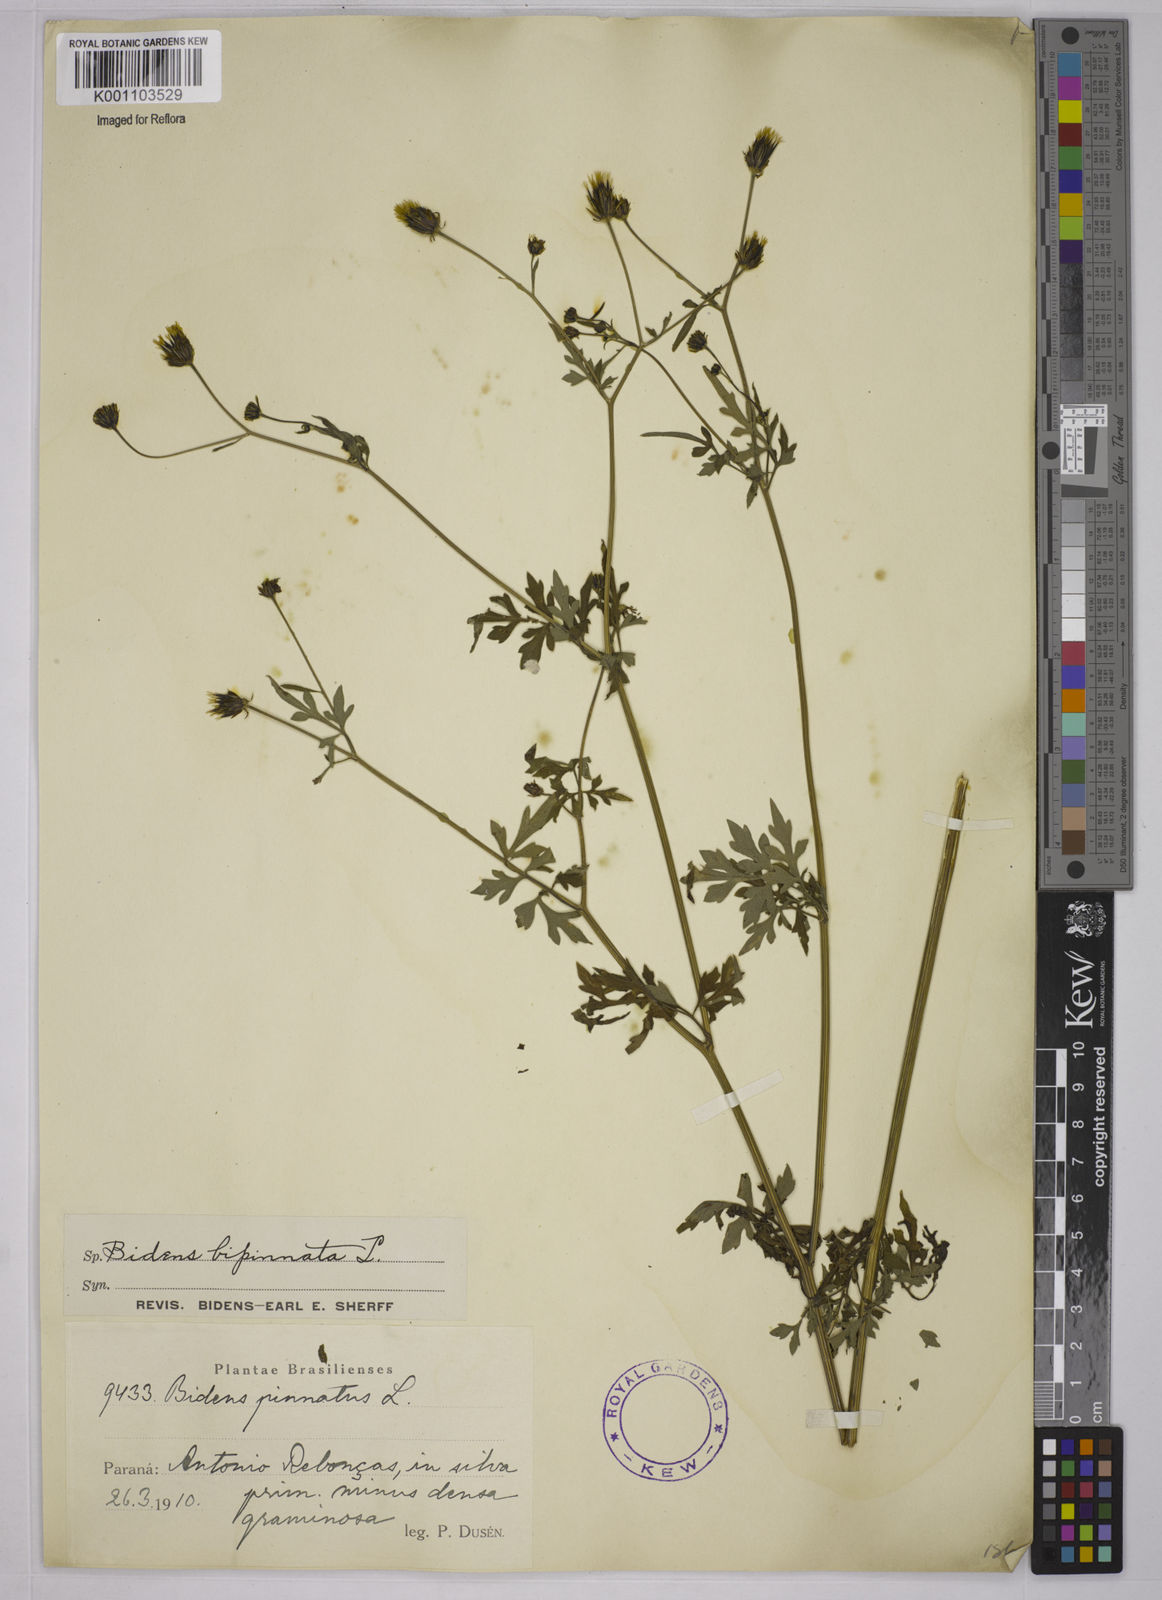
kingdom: Plantae
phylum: Tracheophyta
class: Magnoliopsida
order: Asterales
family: Asteraceae
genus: Bidens
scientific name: Bidens bipinnata
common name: Spanish-needles
